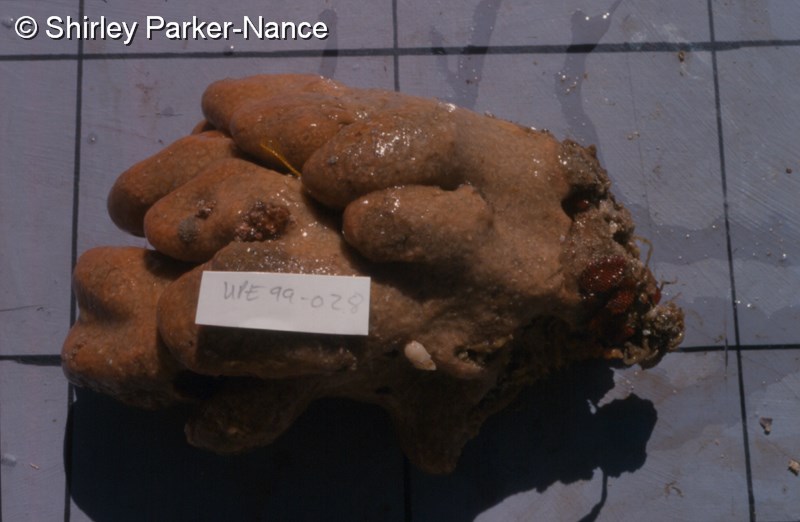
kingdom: Animalia
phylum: Chordata
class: Ascidiacea
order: Aplousobranchia
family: Pseudodistomidae
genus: Pseudodistoma
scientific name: Pseudodistoma
